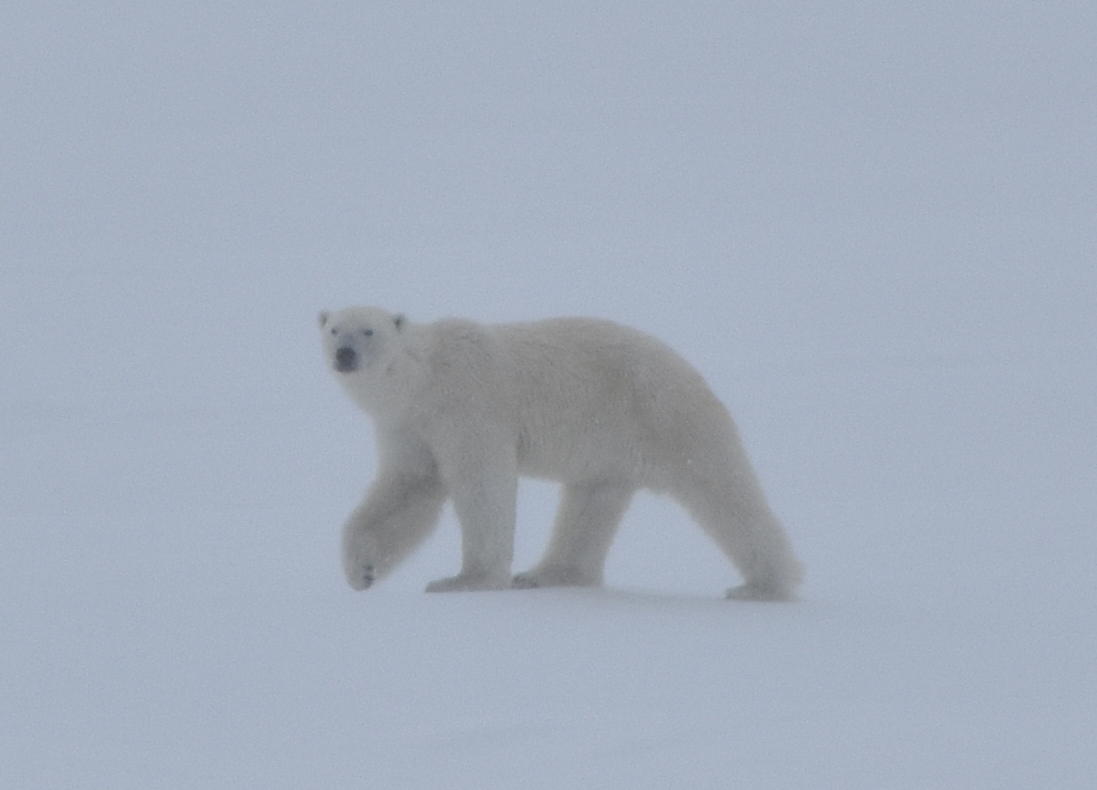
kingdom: Animalia
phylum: Chordata
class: Mammalia
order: Carnivora
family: Ursidae
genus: Ursus
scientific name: Ursus maritimus
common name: Polar Bear
